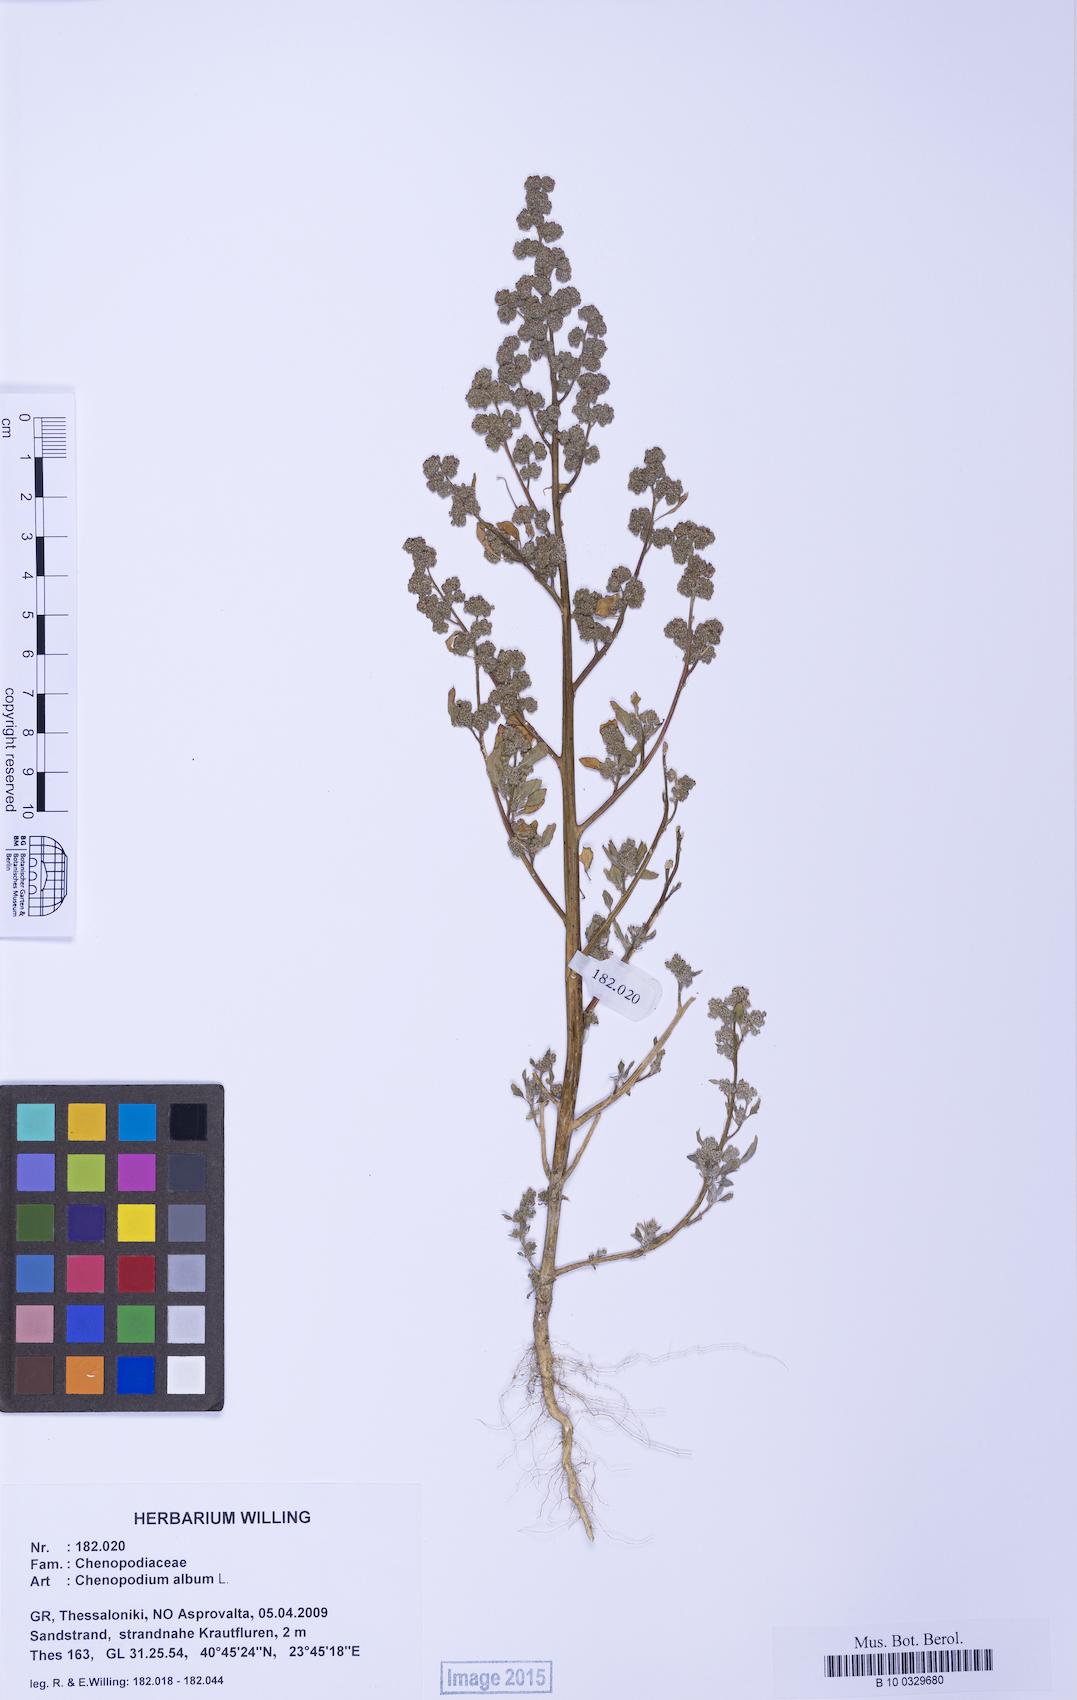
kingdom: Plantae
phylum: Tracheophyta
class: Magnoliopsida
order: Caryophyllales
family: Amaranthaceae
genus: Chenopodium
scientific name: Chenopodium album
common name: Fat-hen
